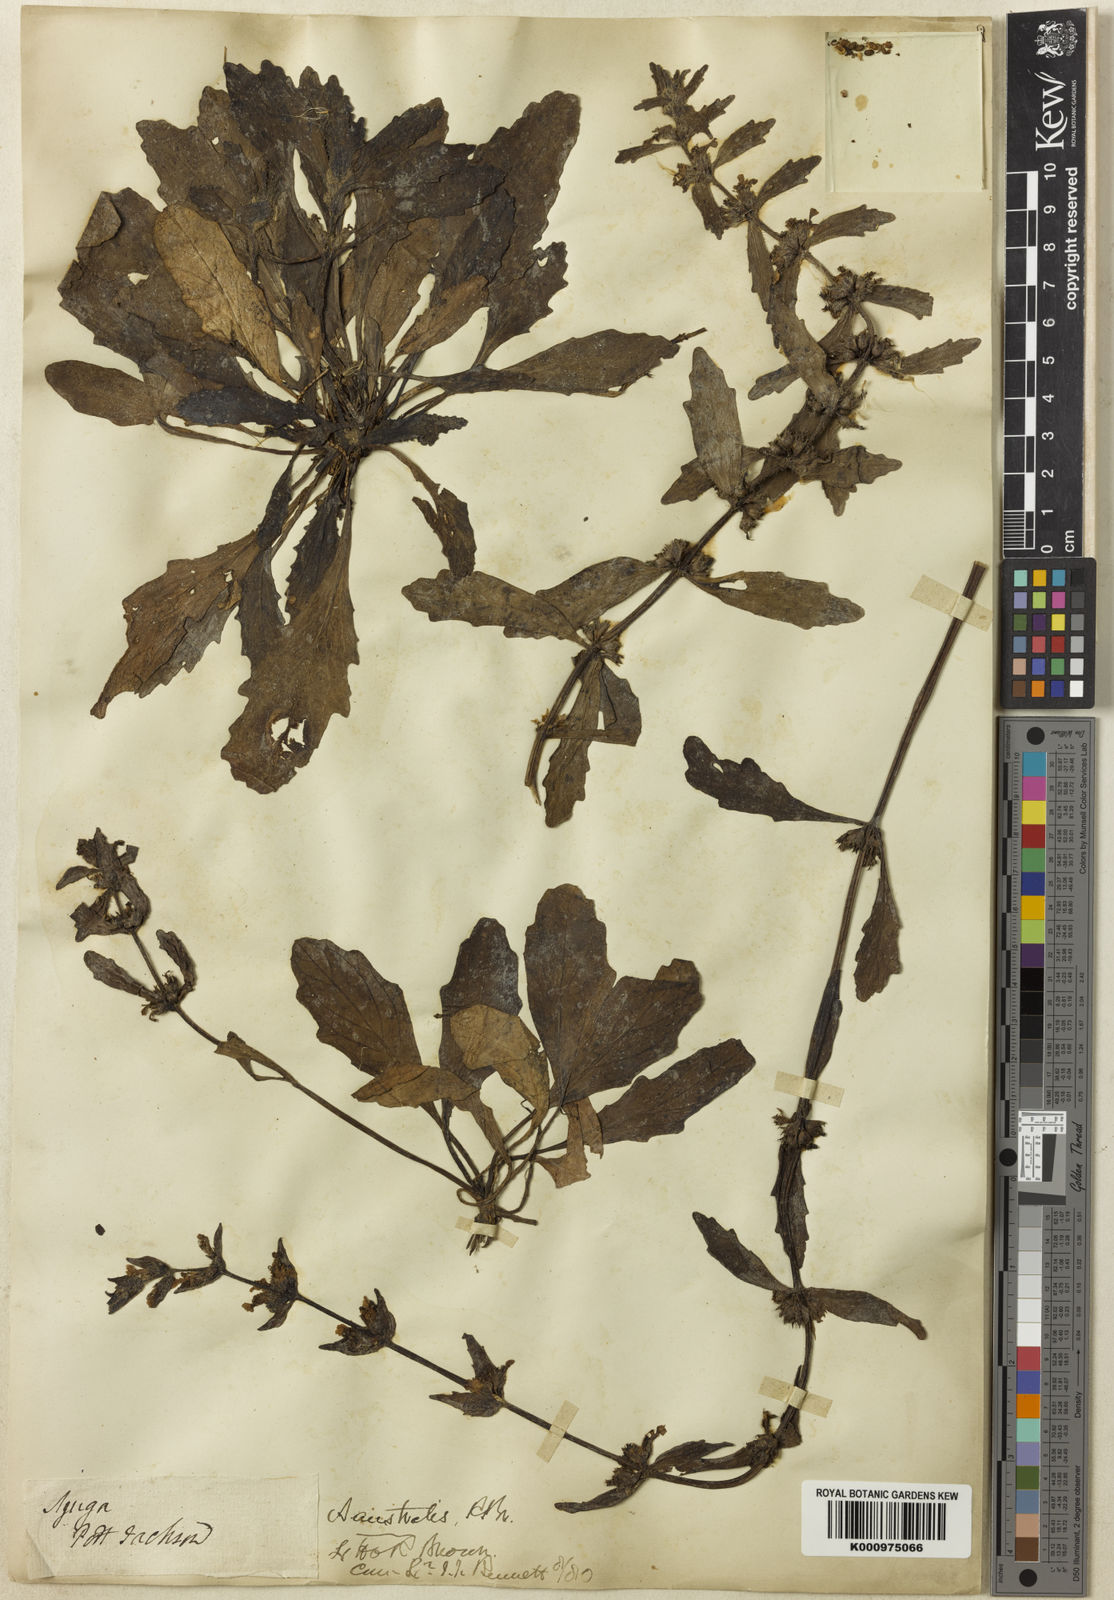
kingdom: Plantae
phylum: Tracheophyta
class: Magnoliopsida
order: Lamiales
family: Lamiaceae
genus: Ajuga
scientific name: Ajuga australis
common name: Australian bugle
